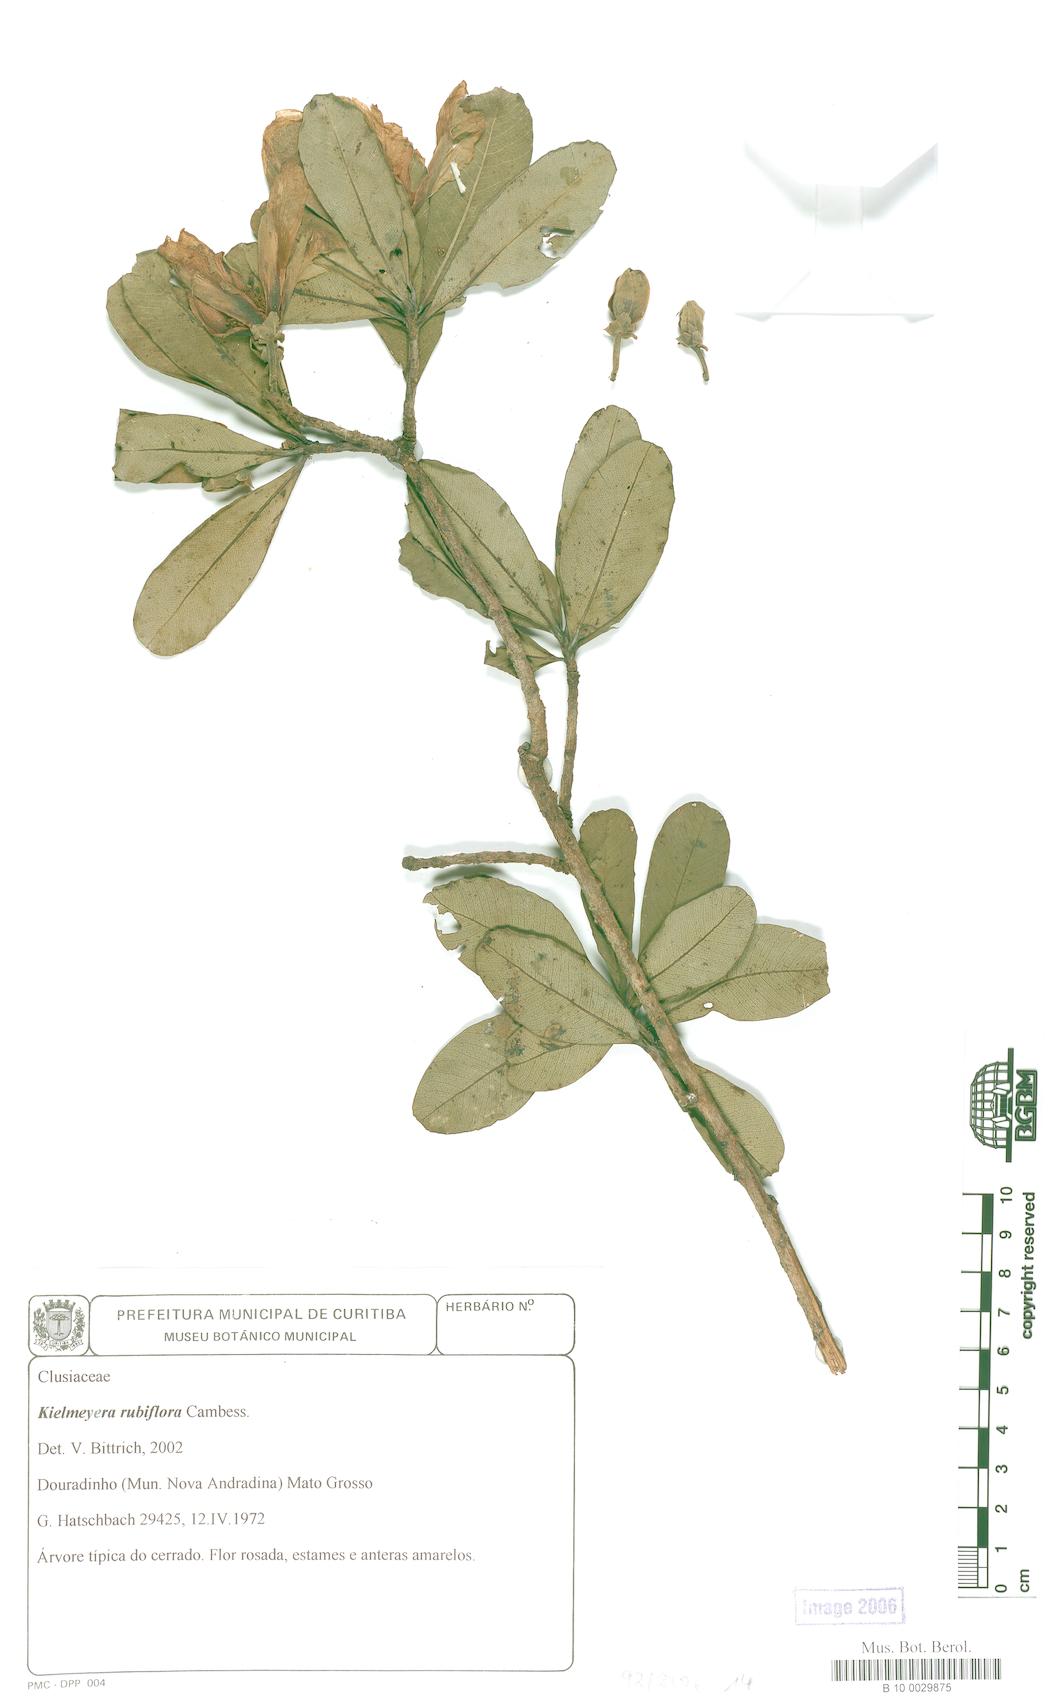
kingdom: Plantae
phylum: Tracheophyta
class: Magnoliopsida
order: Malpighiales
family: Calophyllaceae
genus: Kielmeyera
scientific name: Kielmeyera rubriflora
